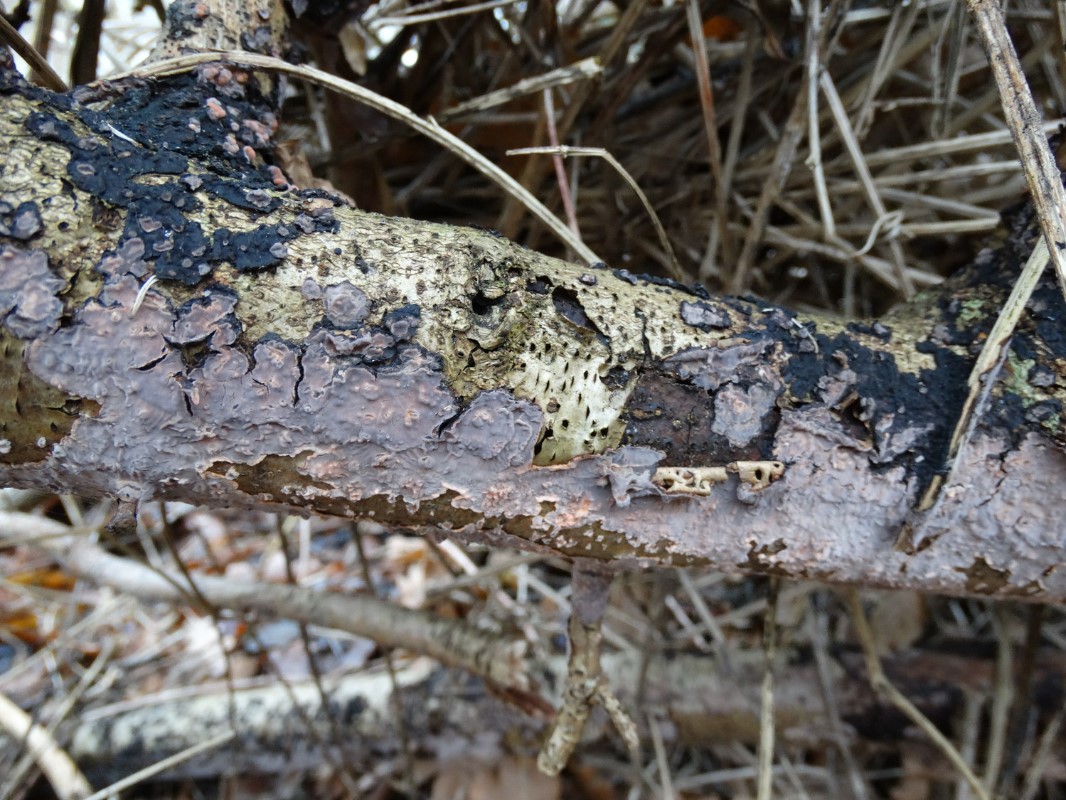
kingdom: Fungi
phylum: Basidiomycota
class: Agaricomycetes
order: Russulales
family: Peniophoraceae
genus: Peniophora
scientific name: Peniophora quercina
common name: ege-voksskind
